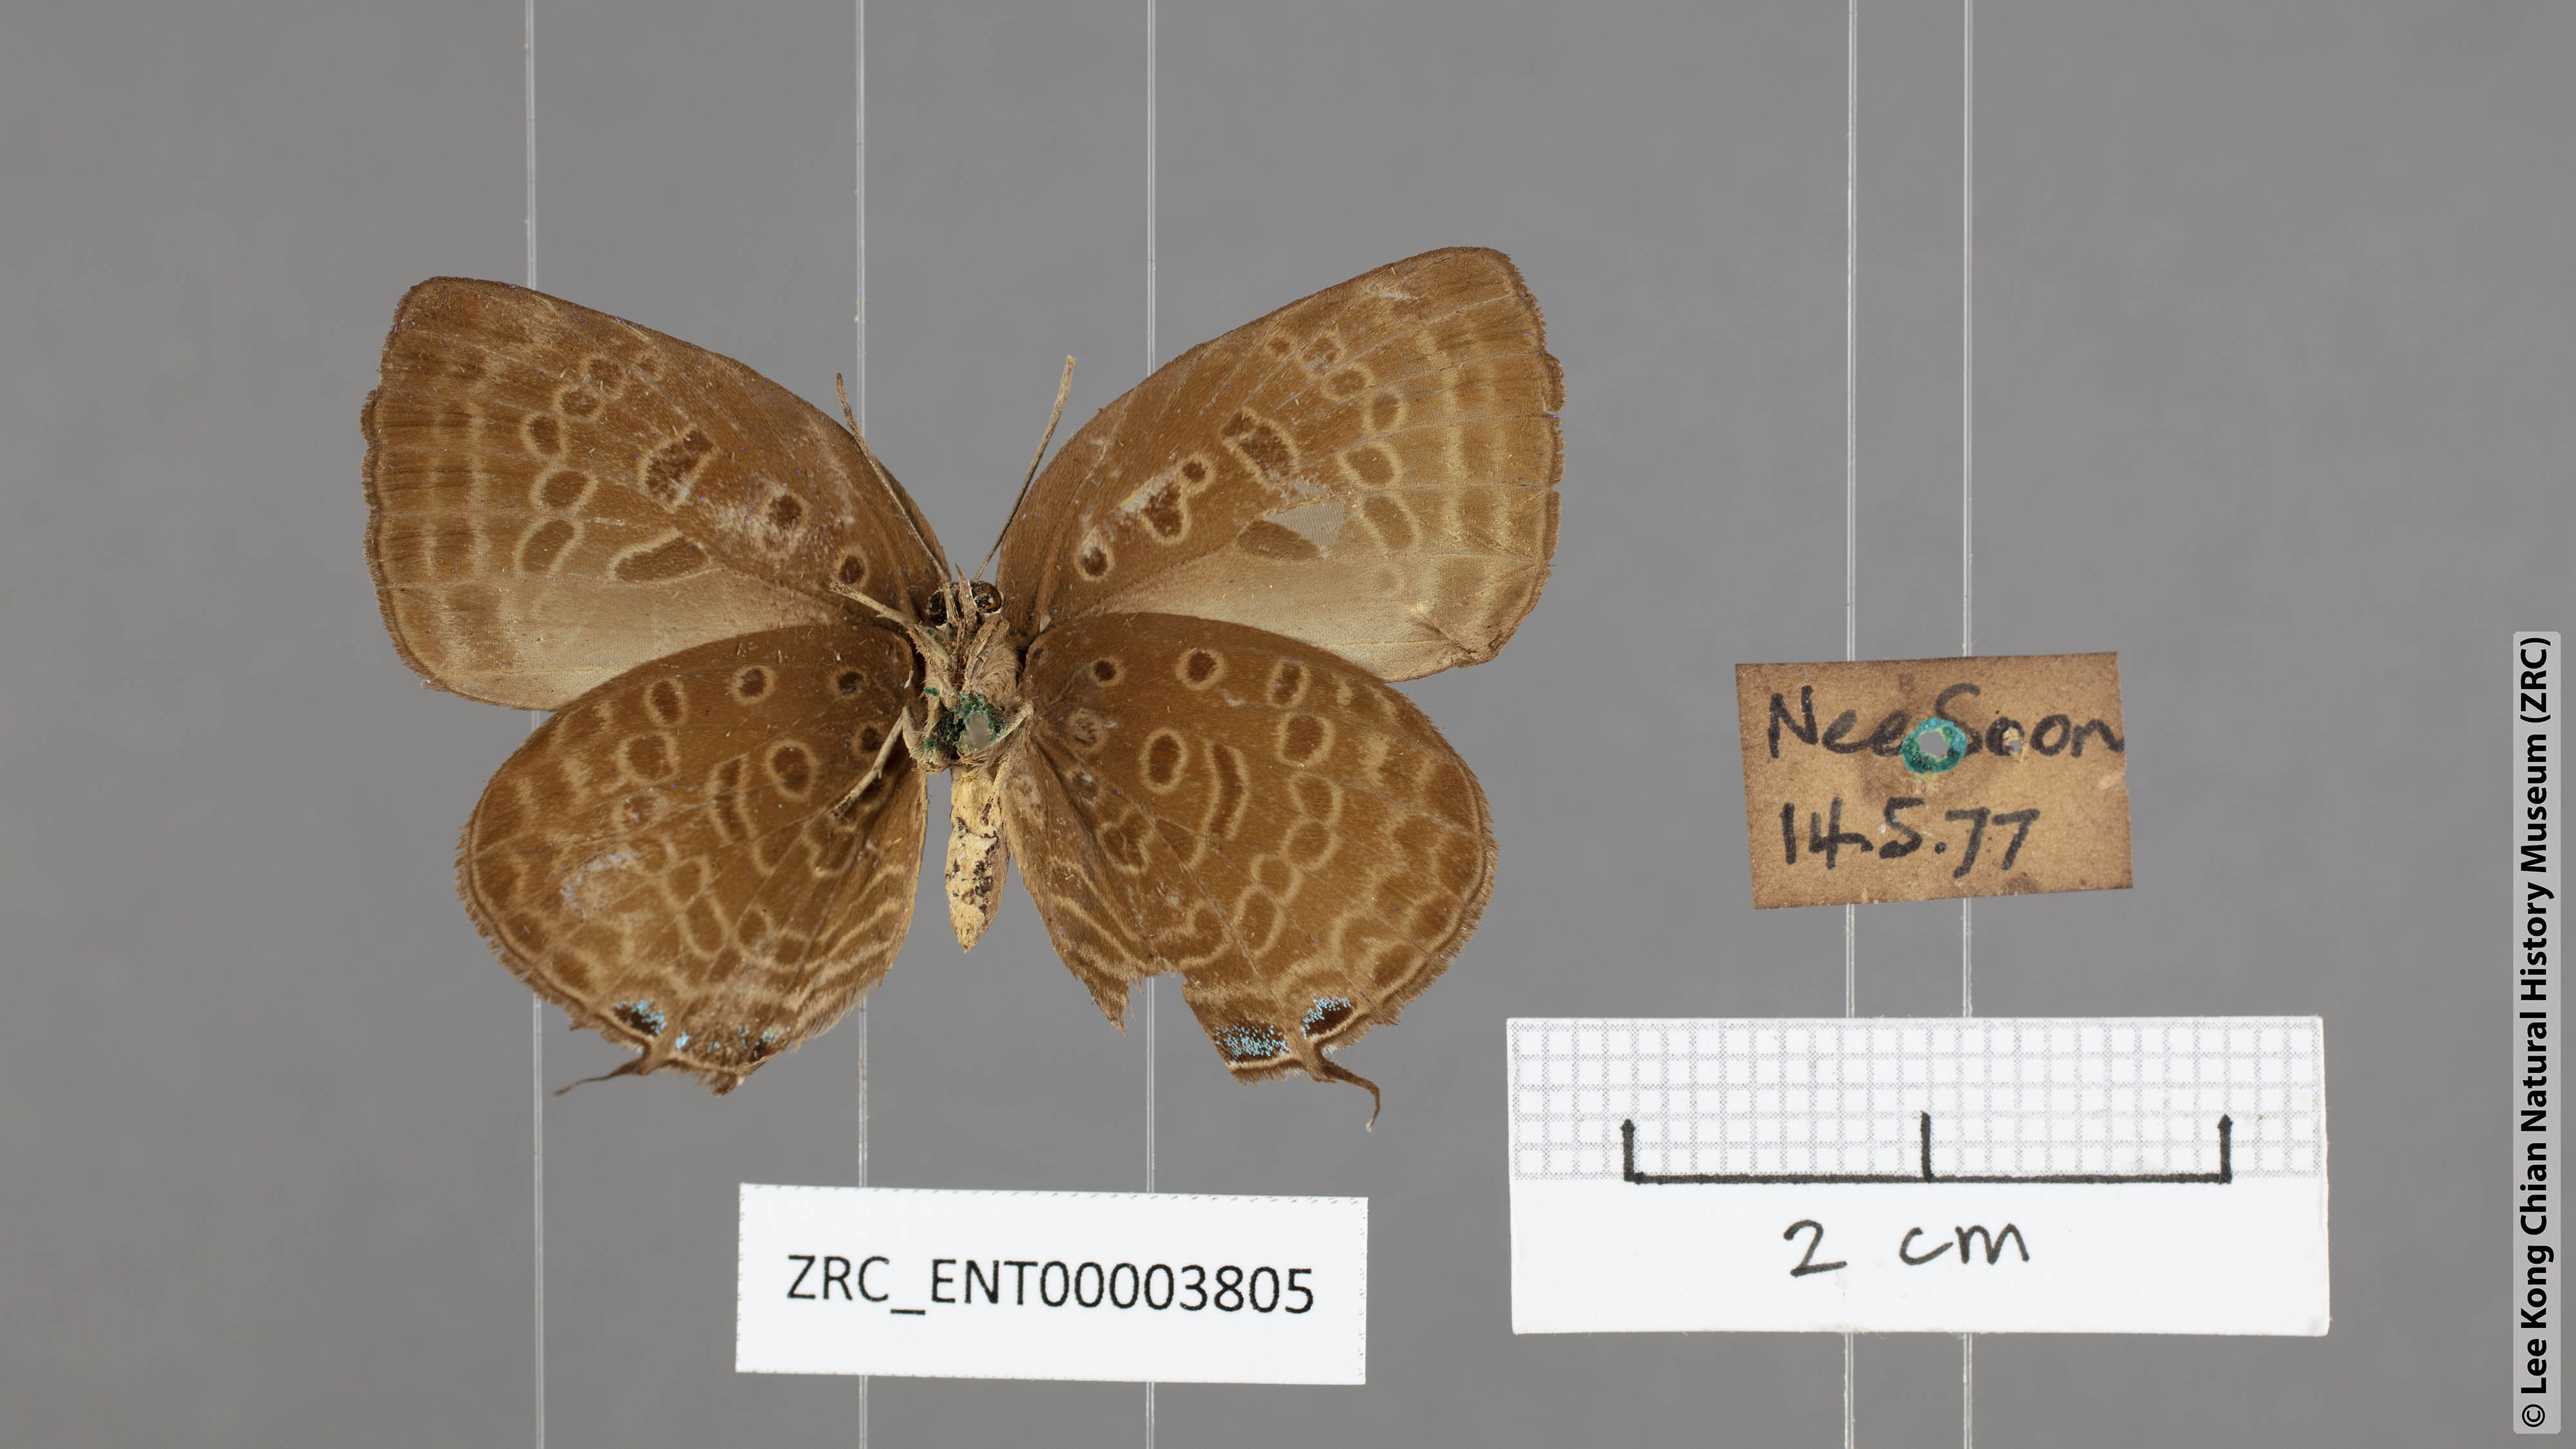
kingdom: Animalia
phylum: Arthropoda
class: Insecta
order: Lepidoptera
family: Lycaenidae
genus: Arhopala
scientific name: Arhopala aedias
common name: Large metallic oakblue
